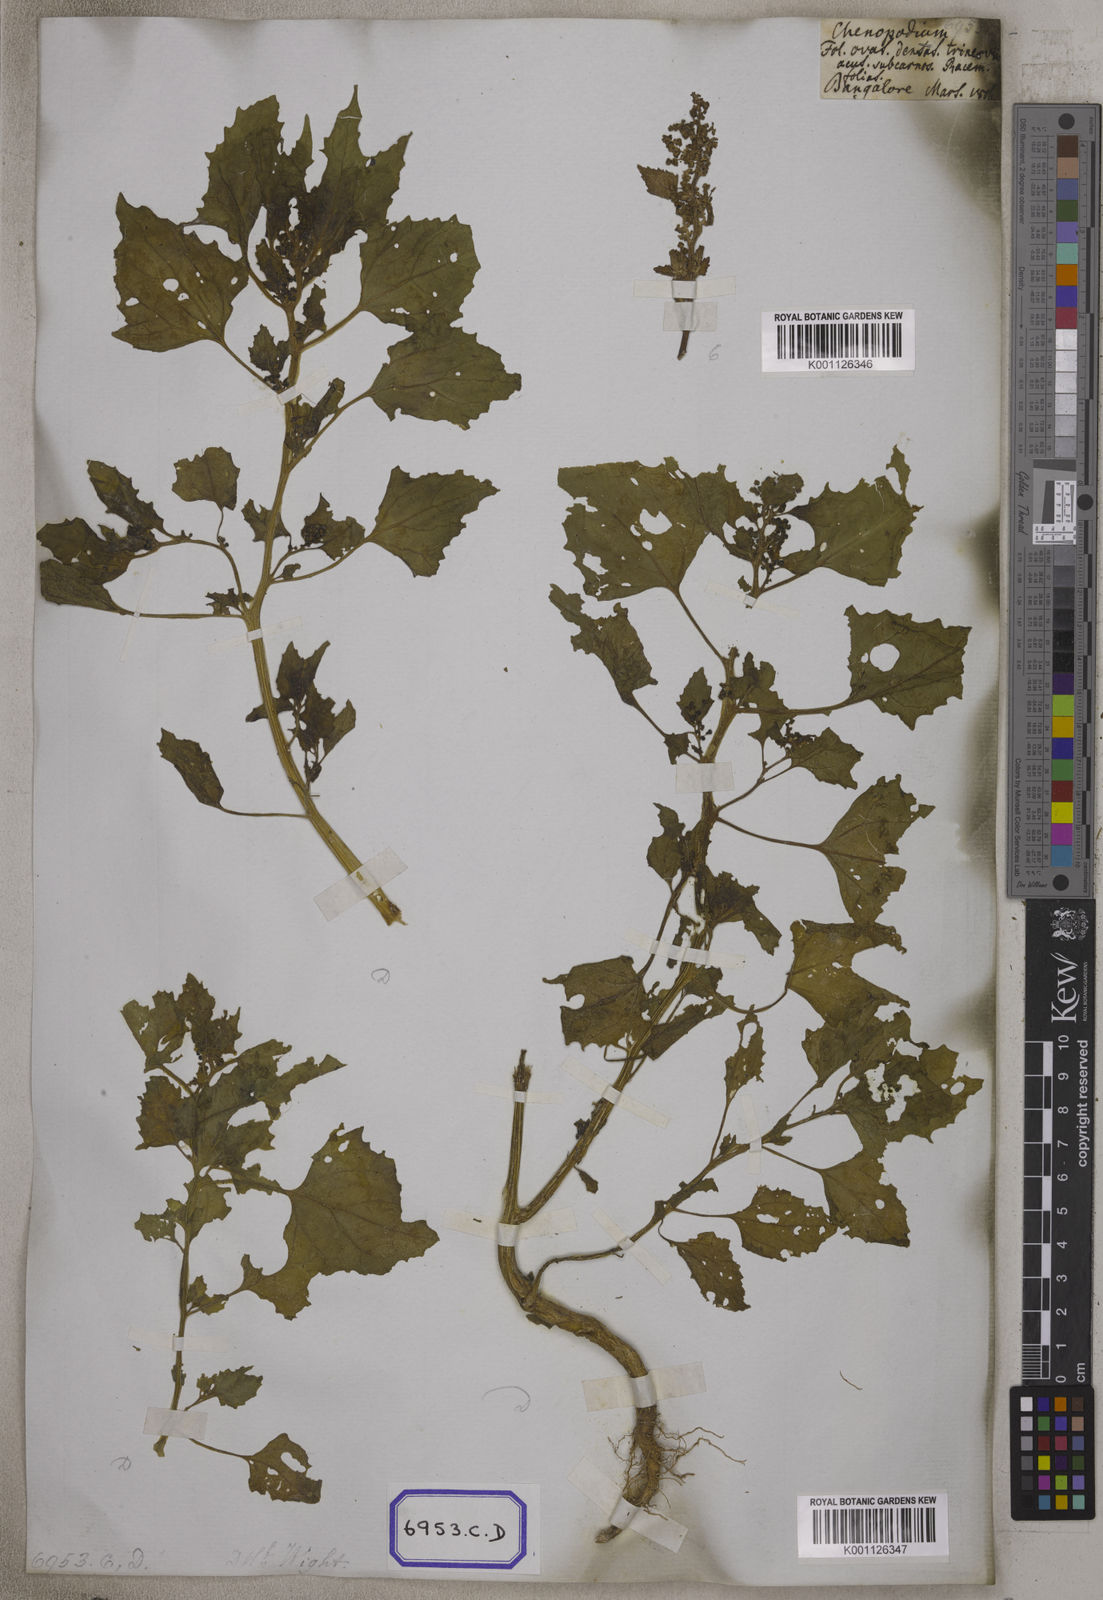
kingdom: Plantae
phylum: Tracheophyta
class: Magnoliopsida
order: Caryophyllales
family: Amaranthaceae
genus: Chenopodiastrum
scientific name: Chenopodiastrum murale
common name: Sowbane
